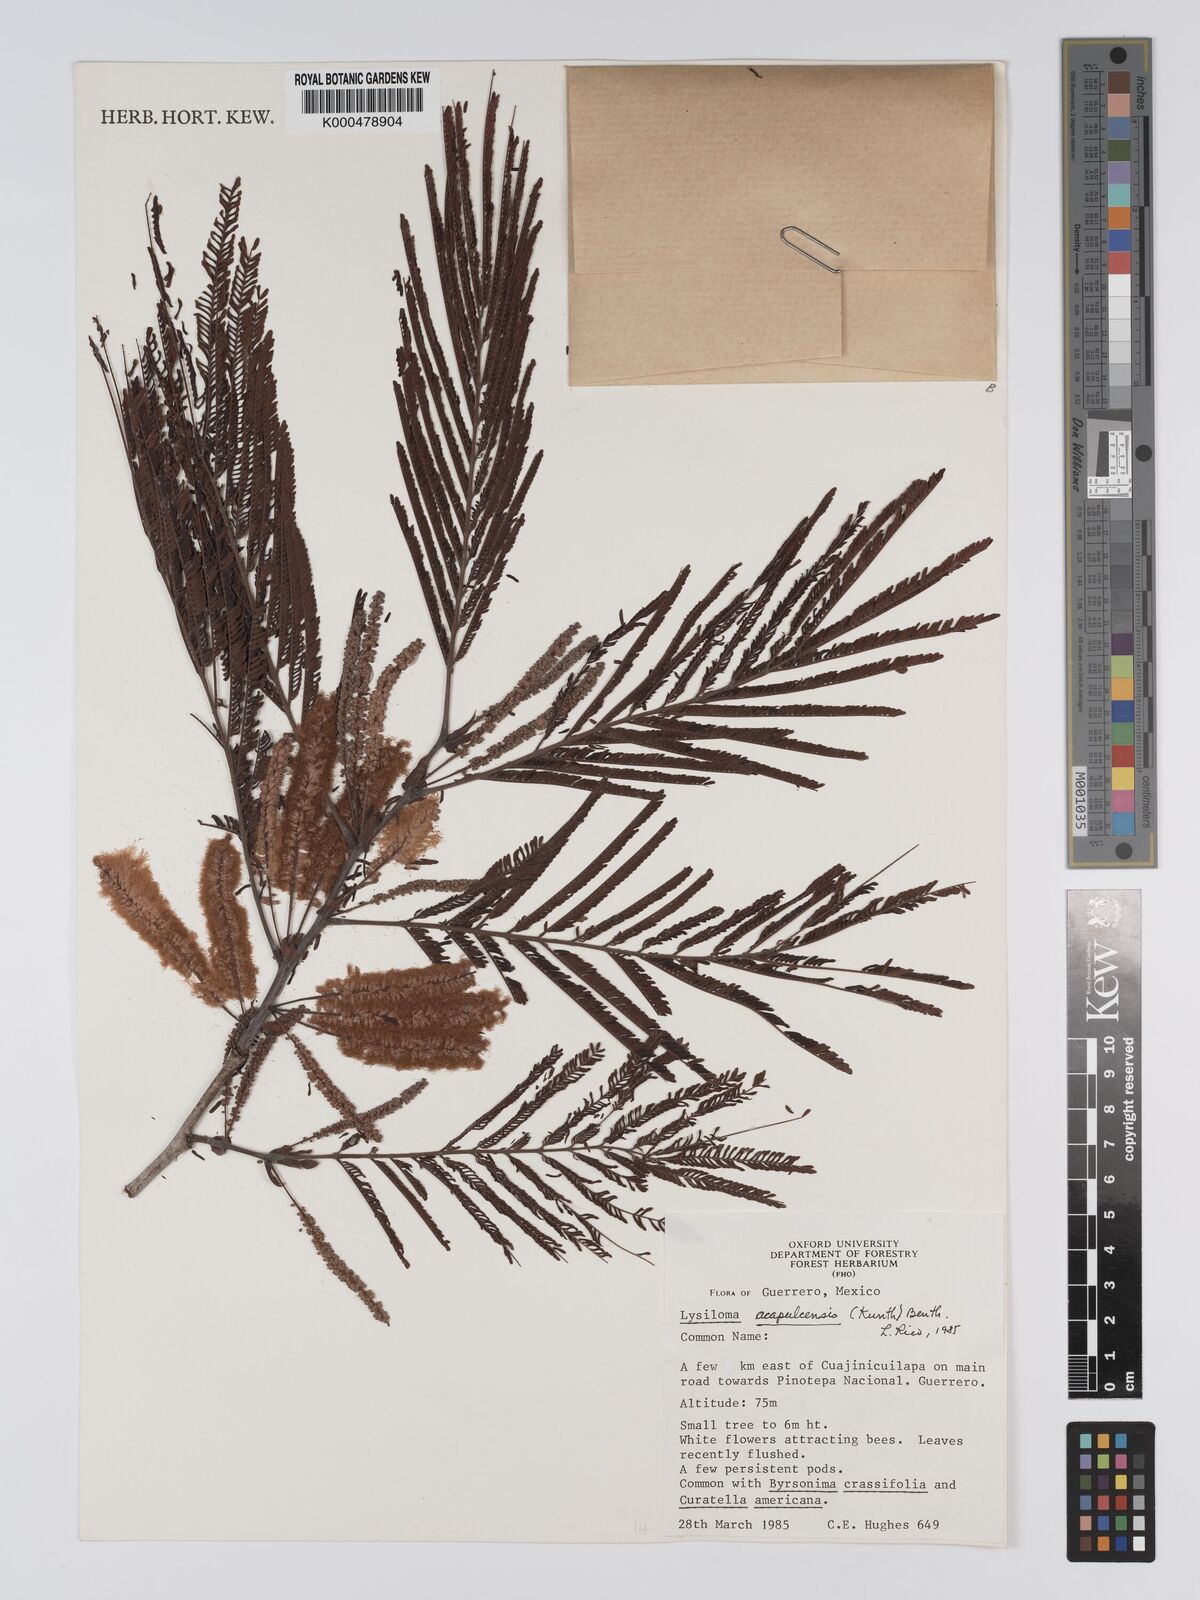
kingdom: Plantae
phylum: Tracheophyta
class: Magnoliopsida
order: Fabales
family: Fabaceae
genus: Lysiloma
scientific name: Lysiloma acapulcense
